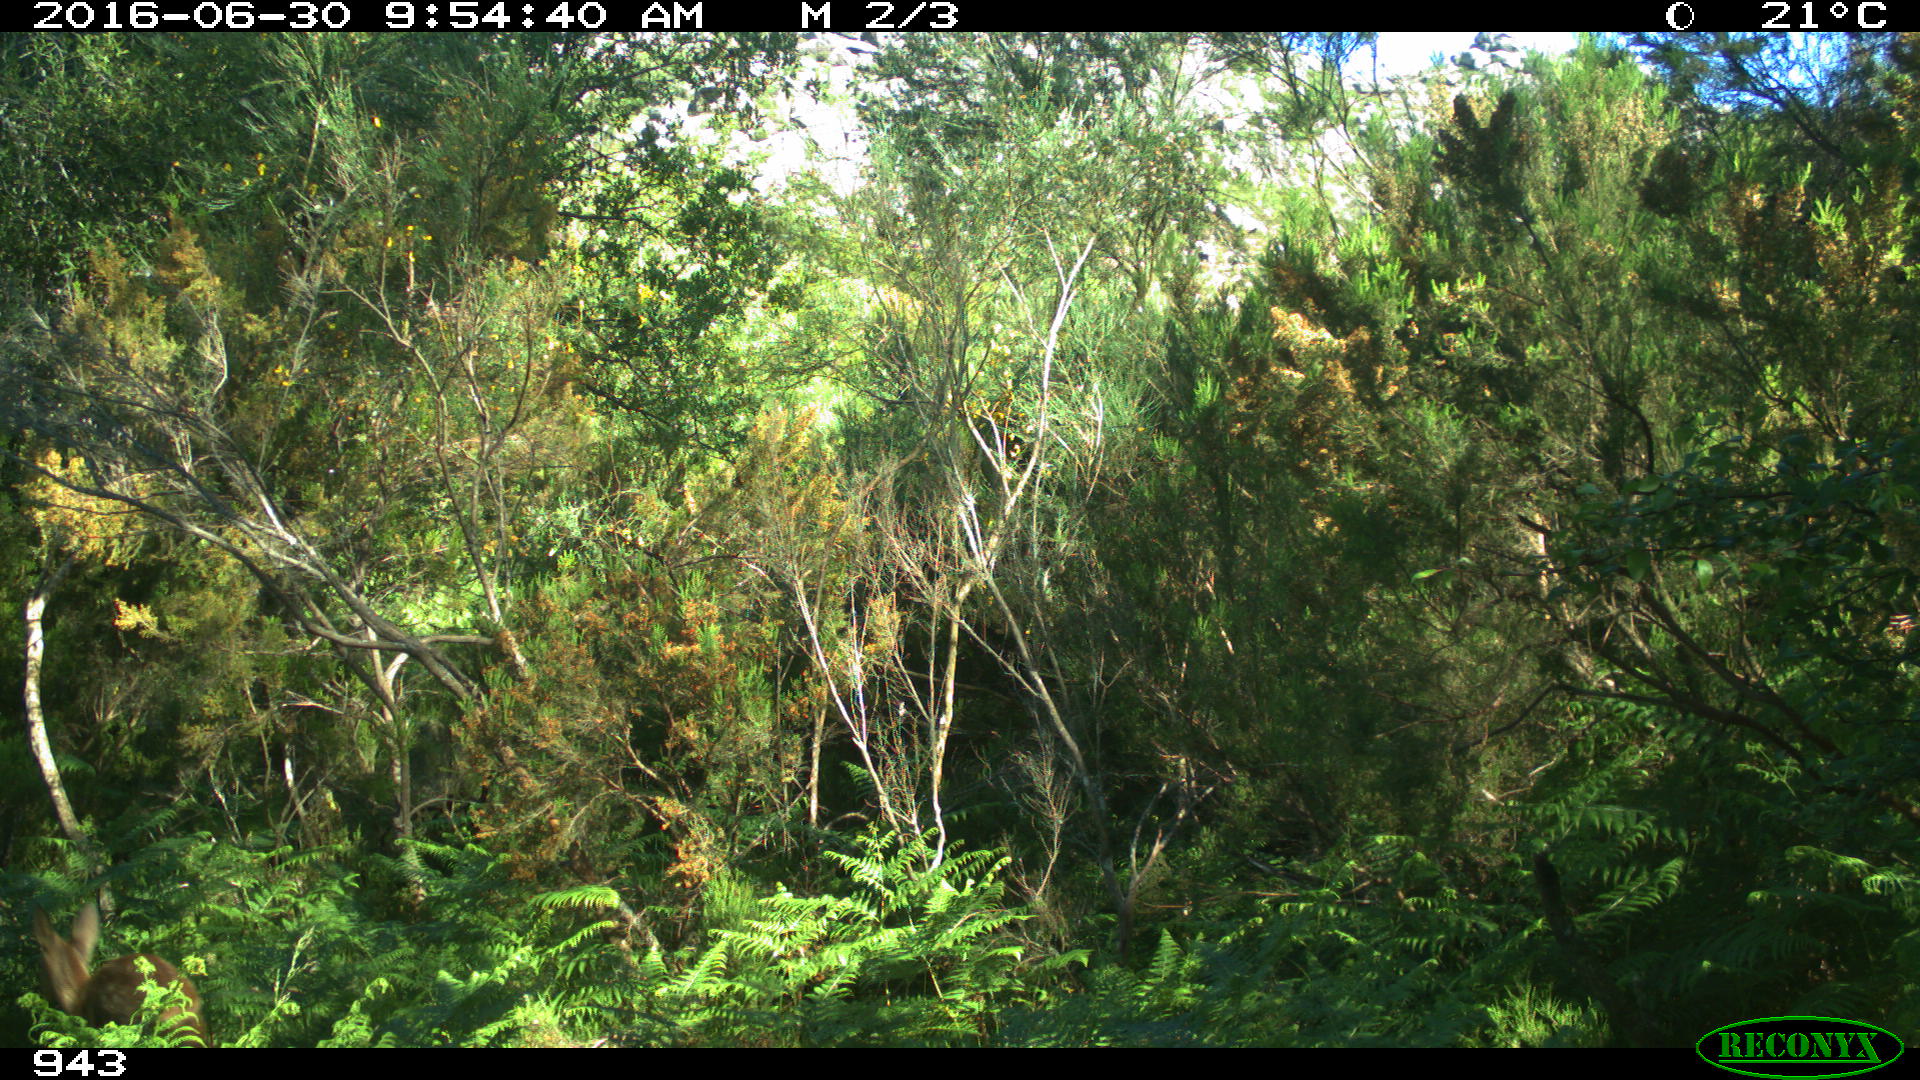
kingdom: Animalia
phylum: Chordata
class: Mammalia
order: Artiodactyla
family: Cervidae
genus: Capreolus
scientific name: Capreolus capreolus
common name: Western roe deer
